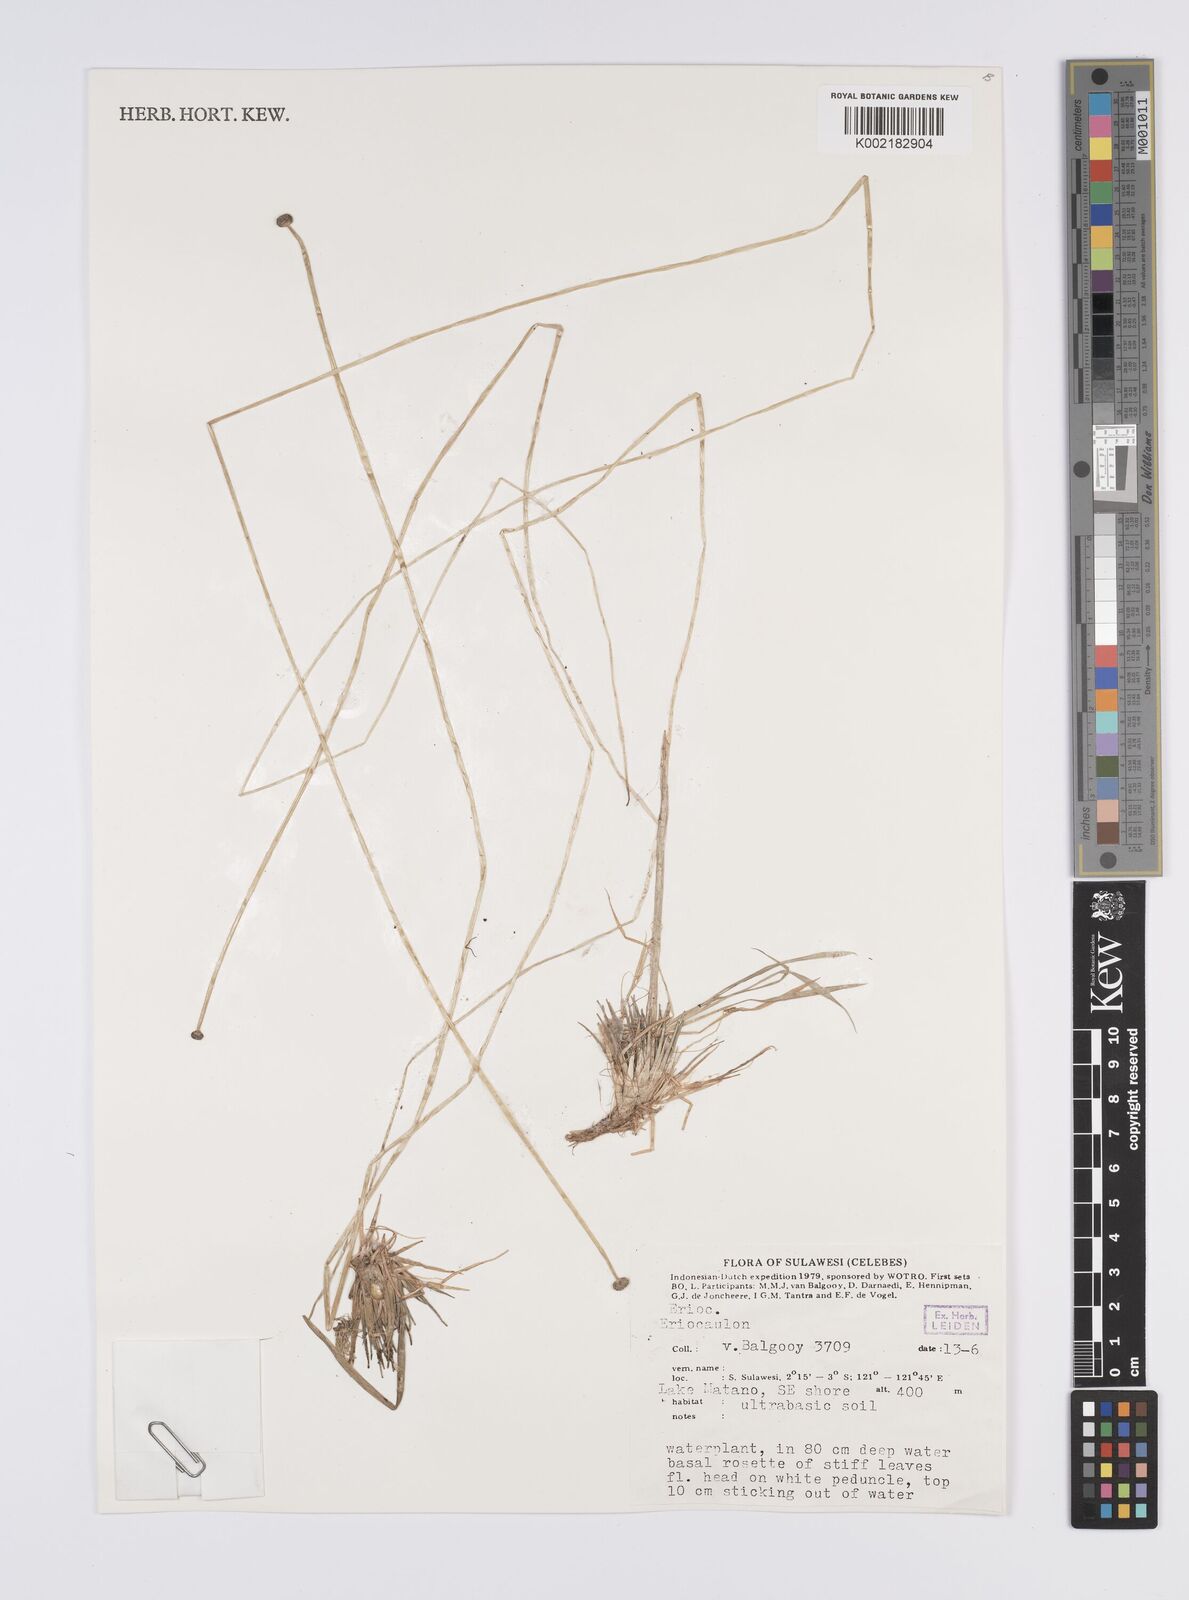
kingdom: Plantae
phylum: Tracheophyta
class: Liliopsida
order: Poales
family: Eriocaulaceae
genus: Eriocaulon
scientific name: Eriocaulon
